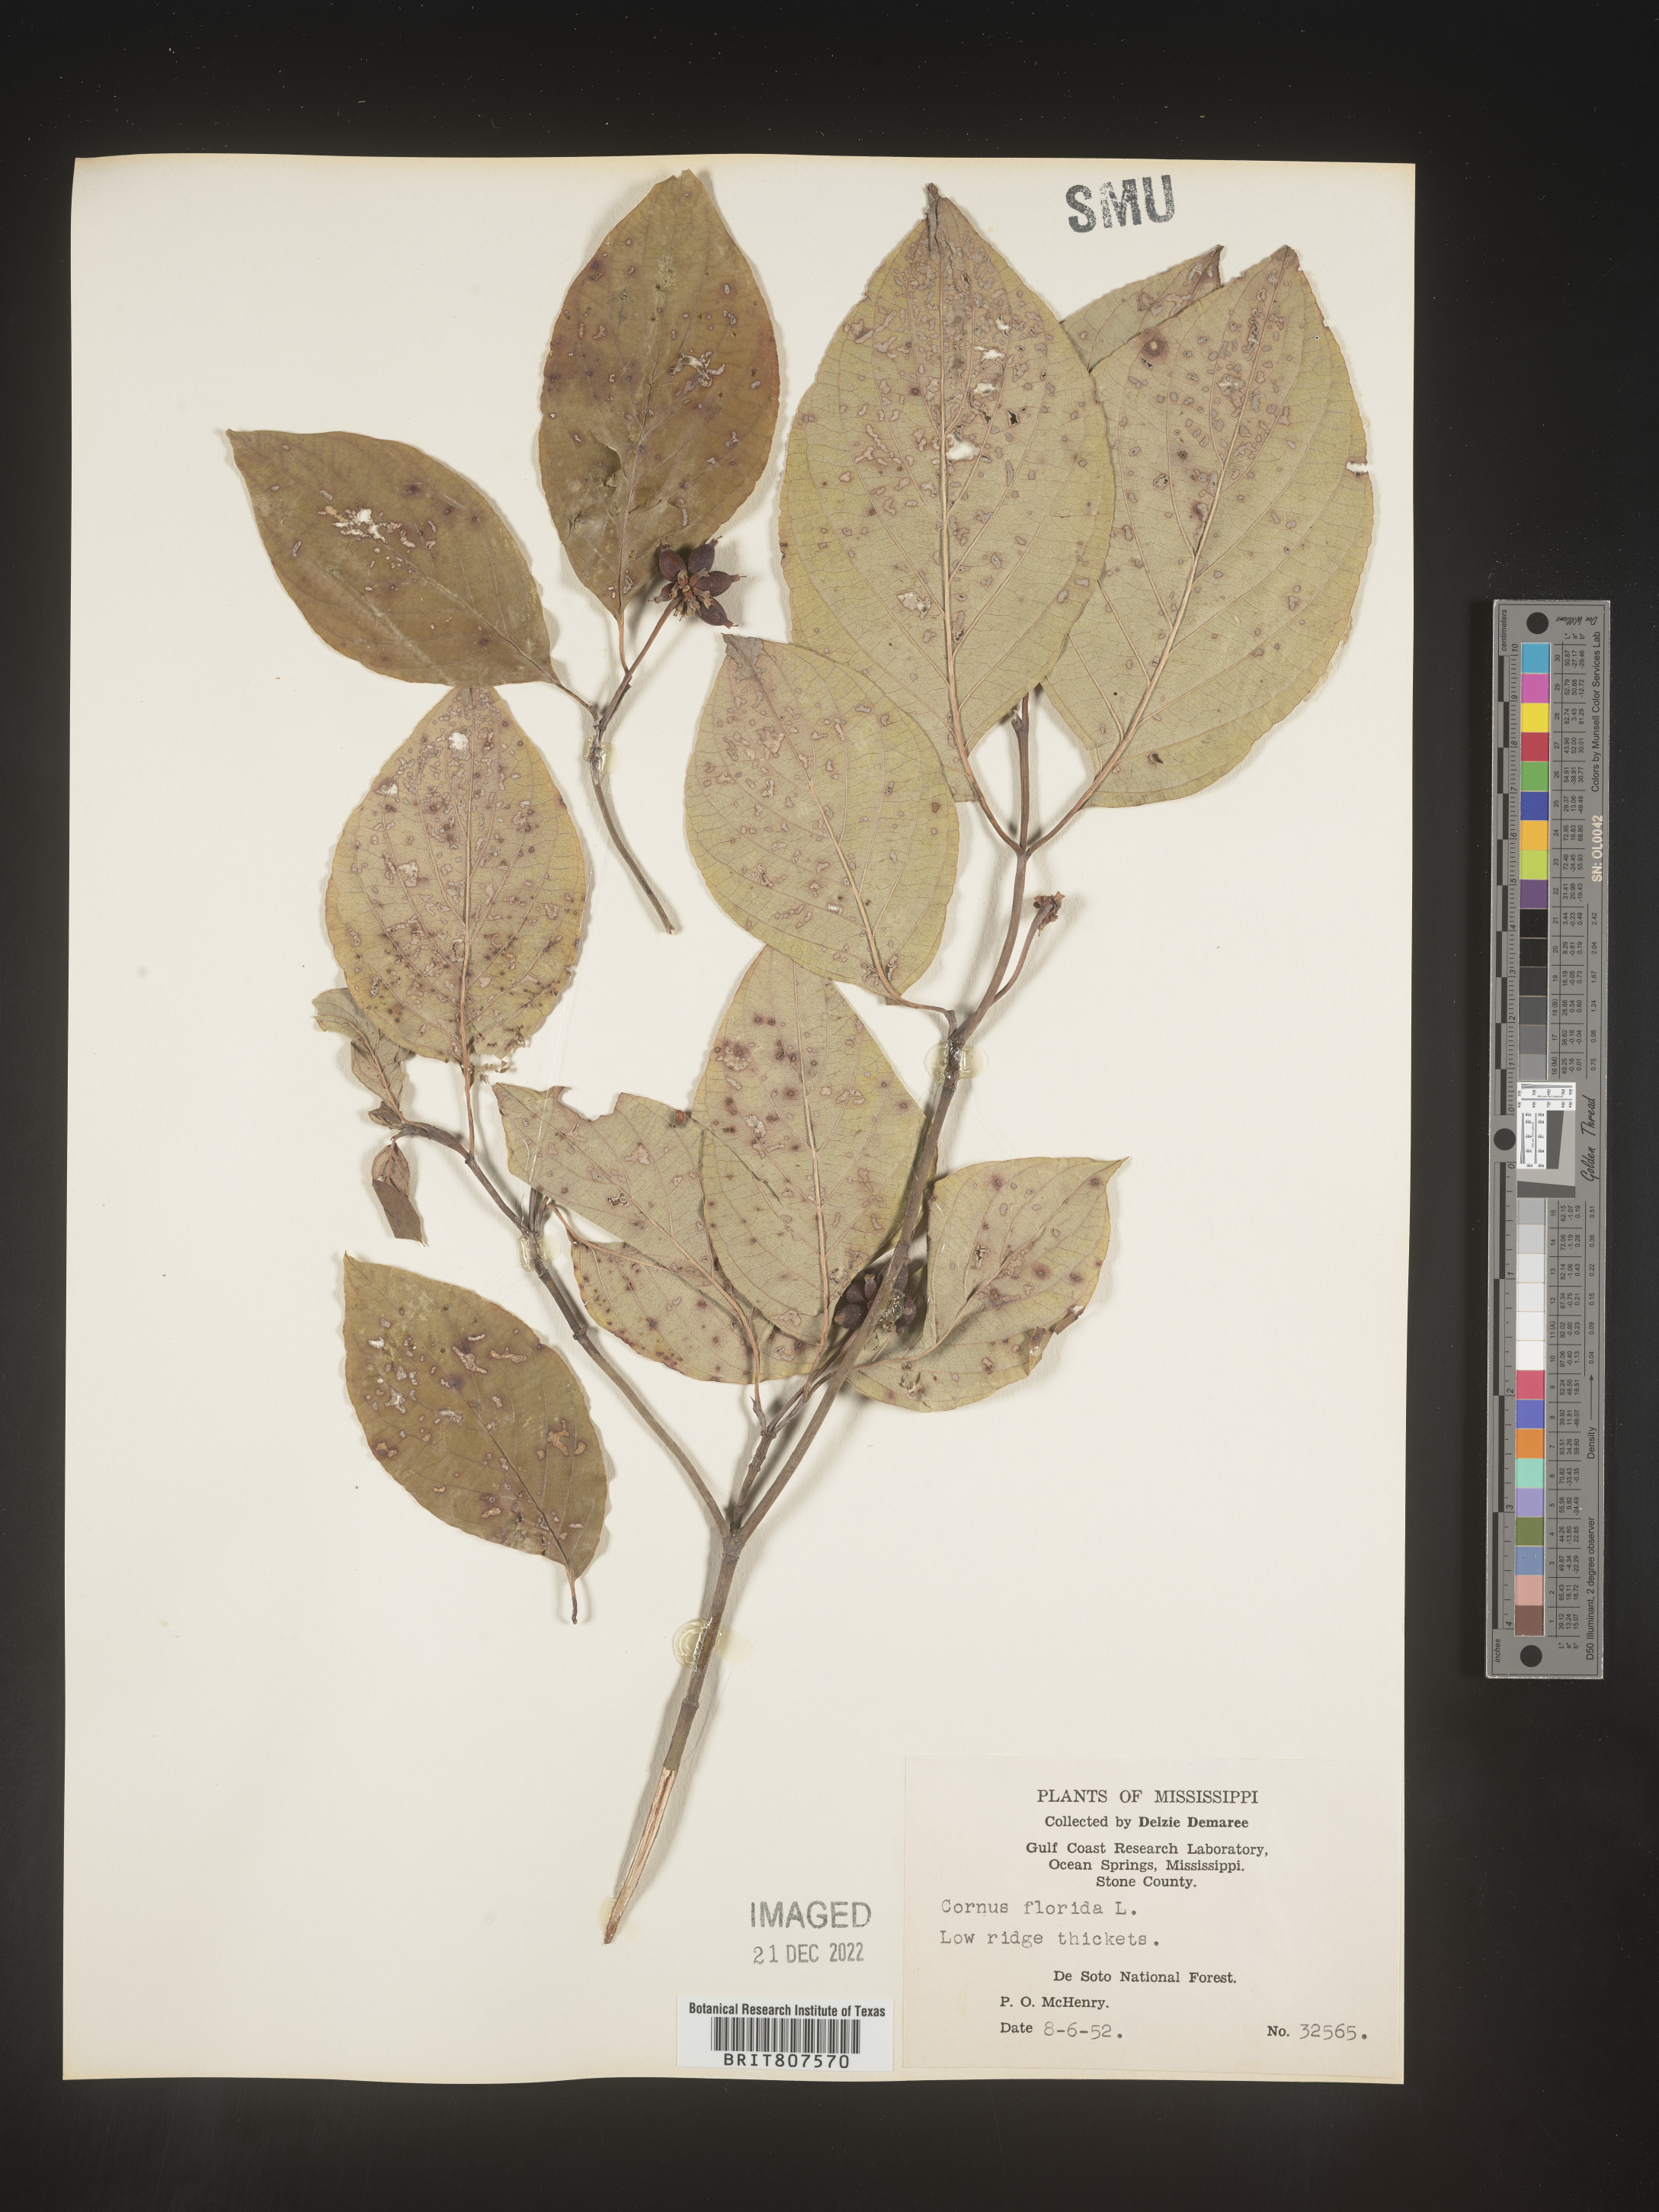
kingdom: Plantae
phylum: Tracheophyta
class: Magnoliopsida
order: Cornales
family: Cornaceae
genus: Cornus
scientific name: Cornus florida
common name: Flowering dogwood
